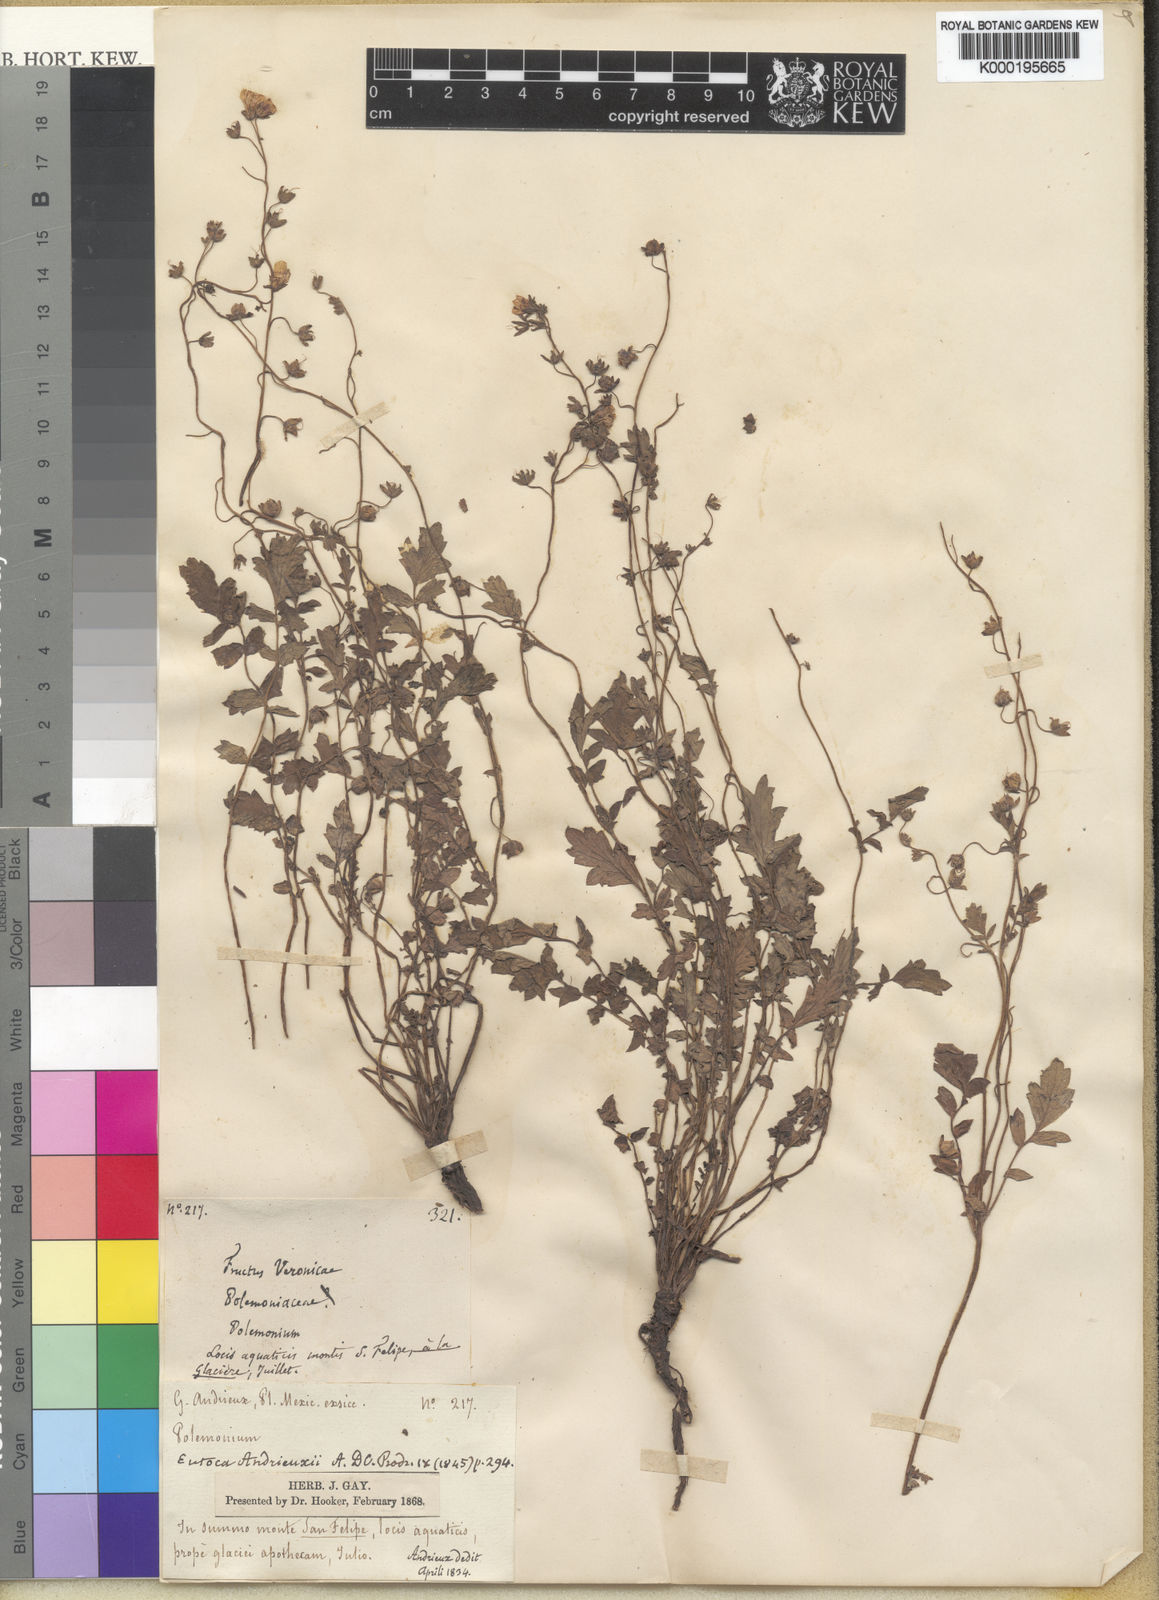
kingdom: Plantae
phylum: Tracheophyta
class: Magnoliopsida
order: Boraginales
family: Hydrophyllaceae
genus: Phacelia
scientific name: Phacelia platycarpa
